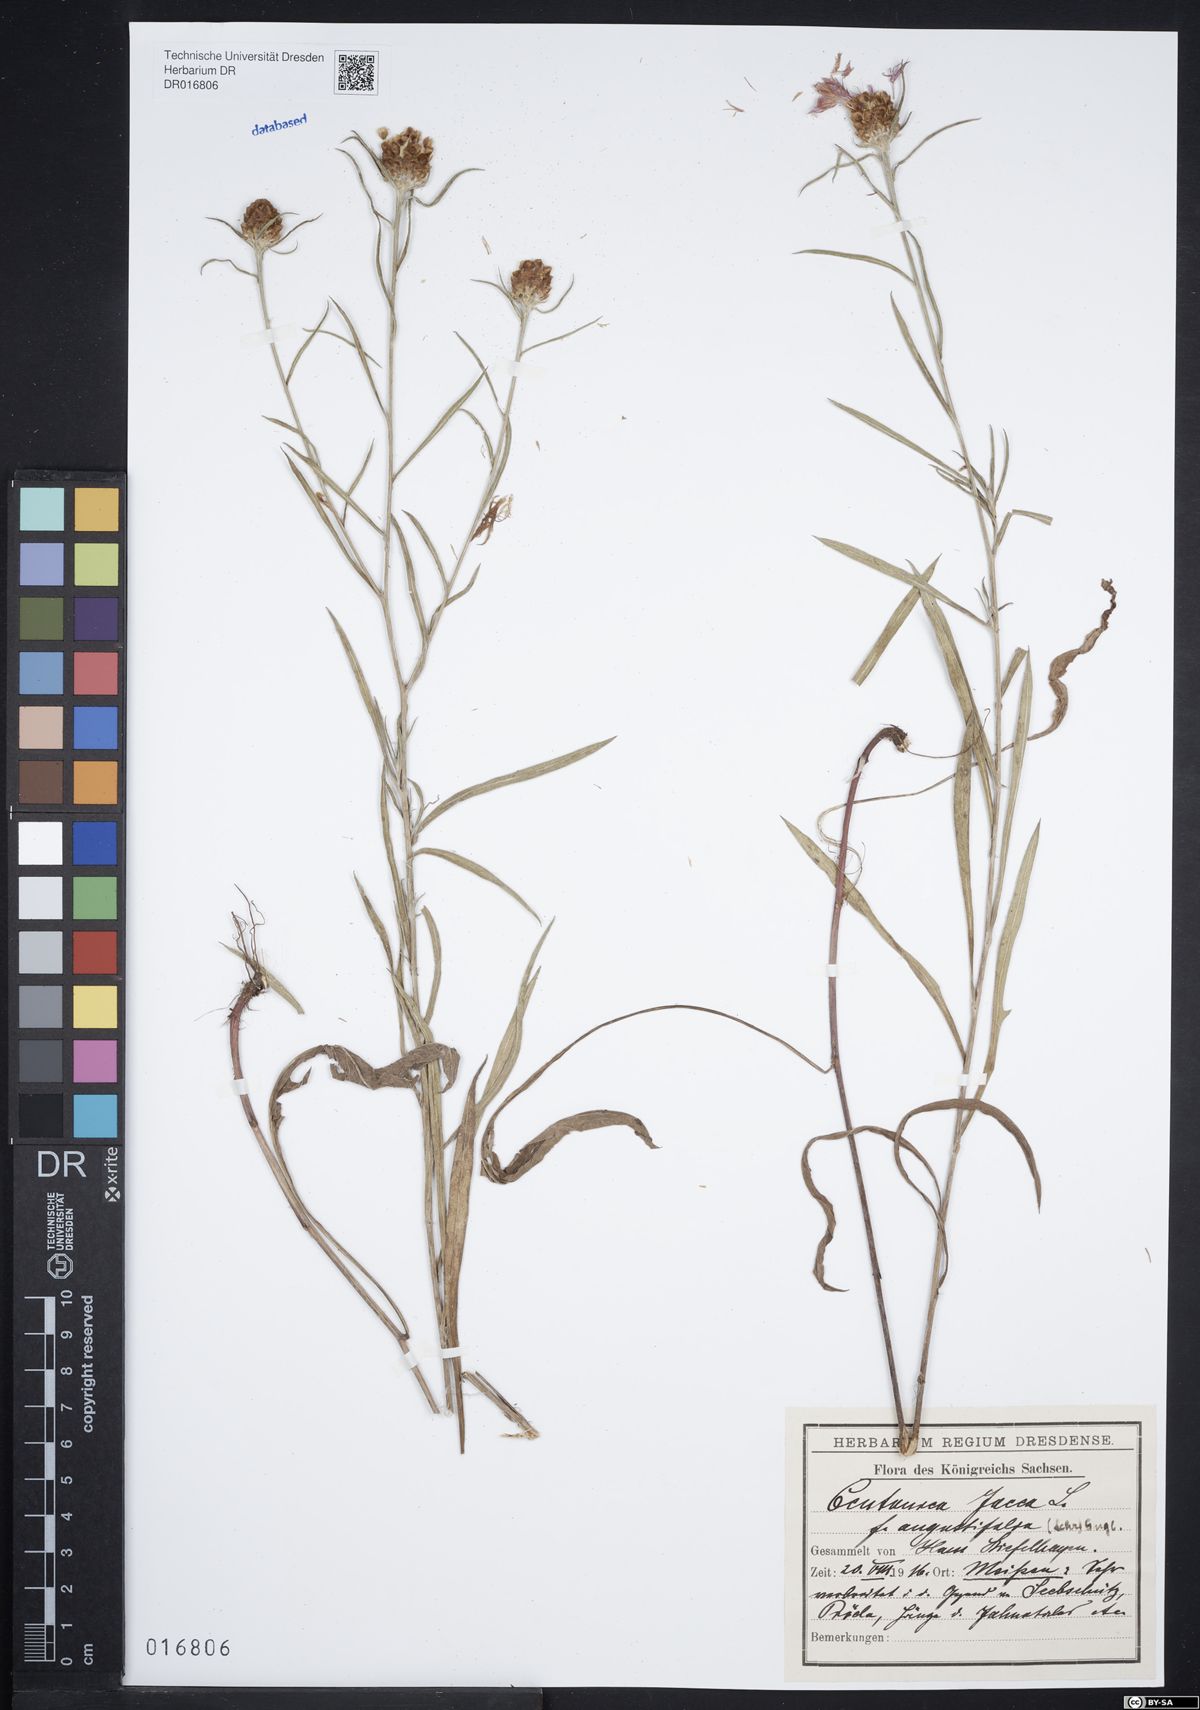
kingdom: Plantae
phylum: Tracheophyta
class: Magnoliopsida
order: Asterales
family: Asteraceae
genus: Centaurea
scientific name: Centaurea preissmannii
